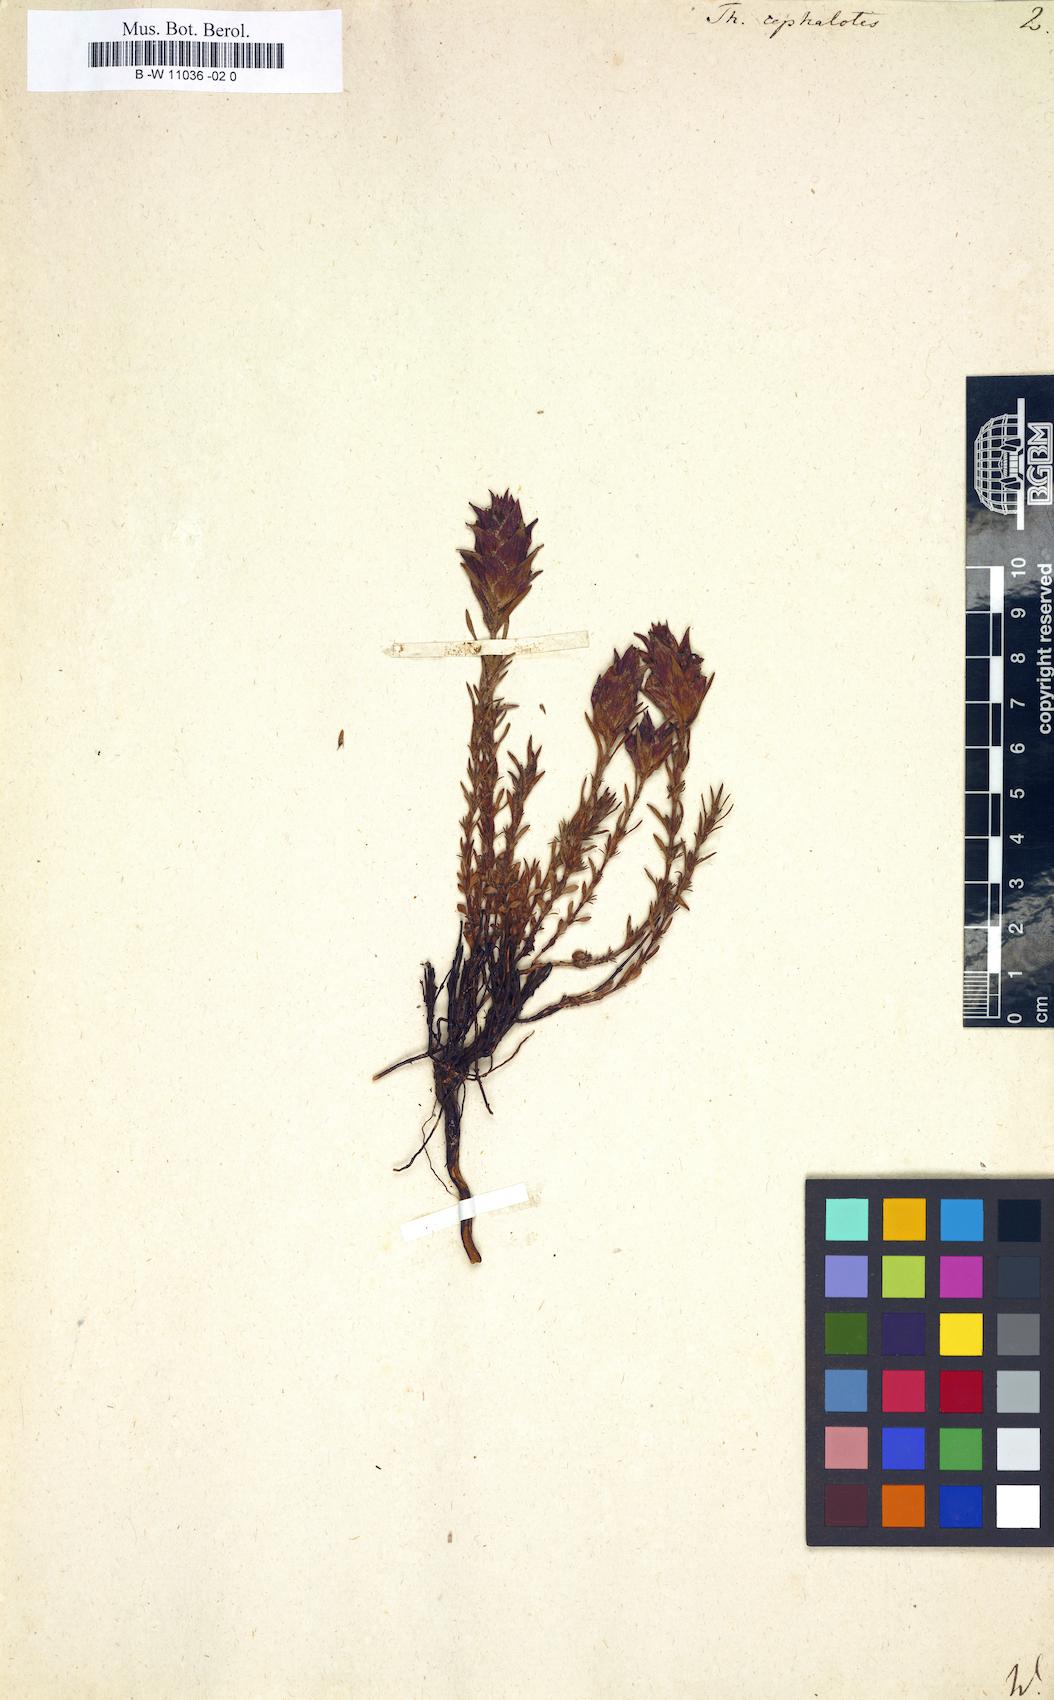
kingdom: Plantae
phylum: Tracheophyta
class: Magnoliopsida
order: Lamiales
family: Lamiaceae
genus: Thymus
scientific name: Thymus moroderi
